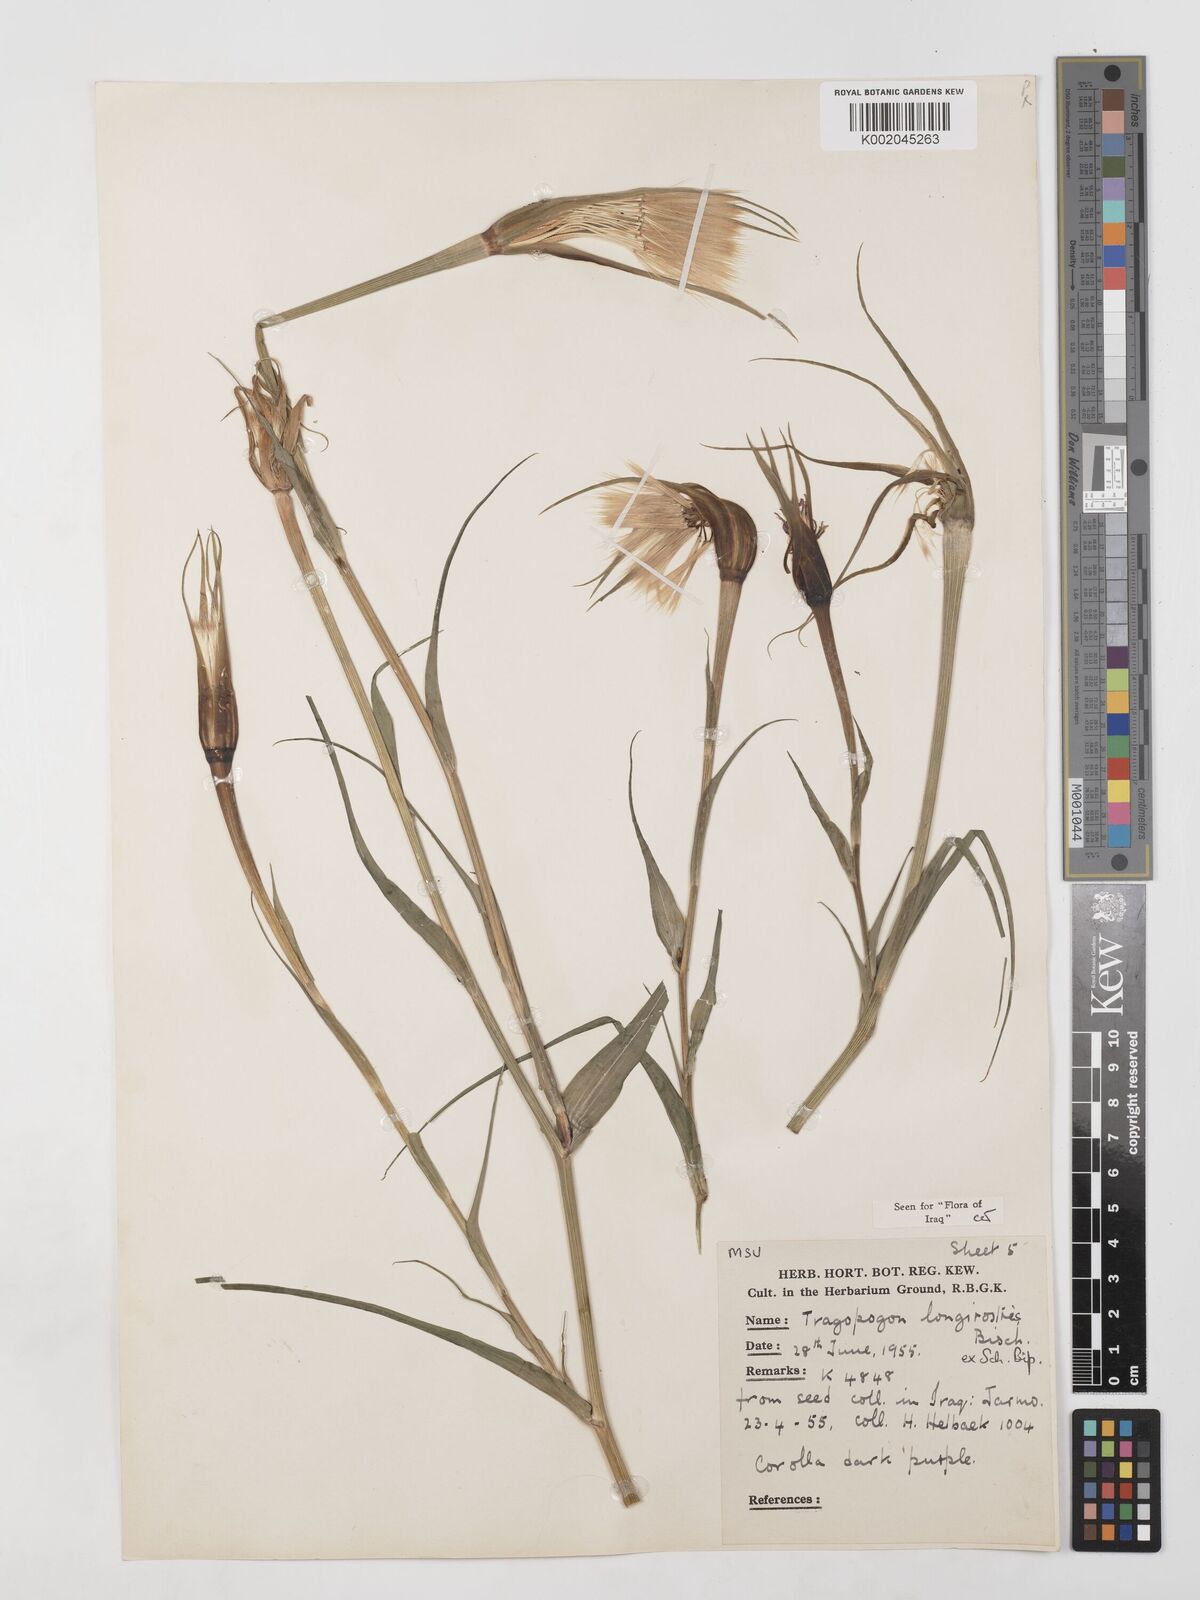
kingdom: Plantae
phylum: Tracheophyta
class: Magnoliopsida
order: Asterales
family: Asteraceae
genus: Tragopogon
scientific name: Tragopogon coelesyriacus
